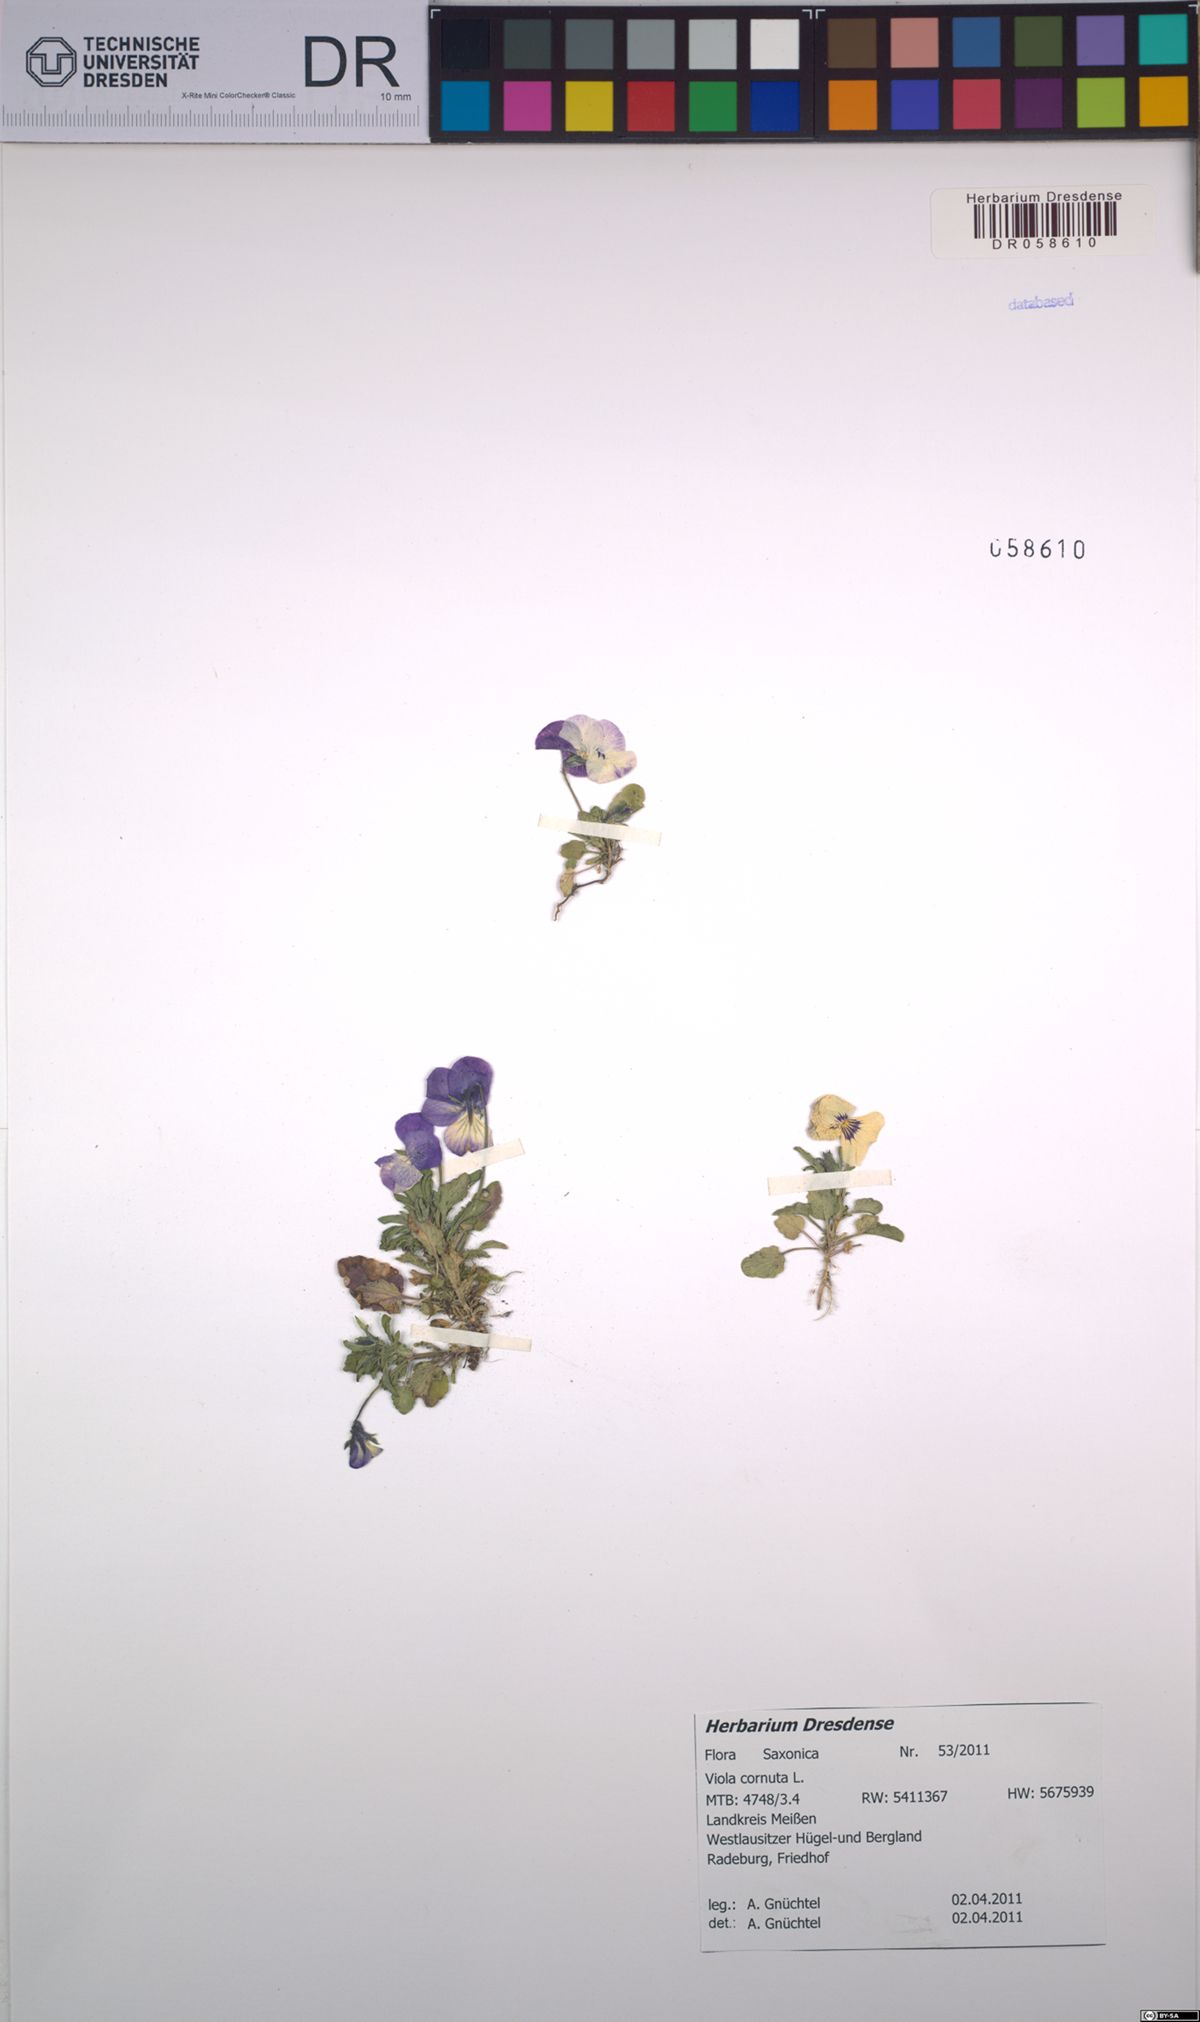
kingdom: Plantae
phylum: Tracheophyta
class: Magnoliopsida
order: Malpighiales
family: Violaceae
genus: Viola
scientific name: Viola cornuta
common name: Horned pansy
